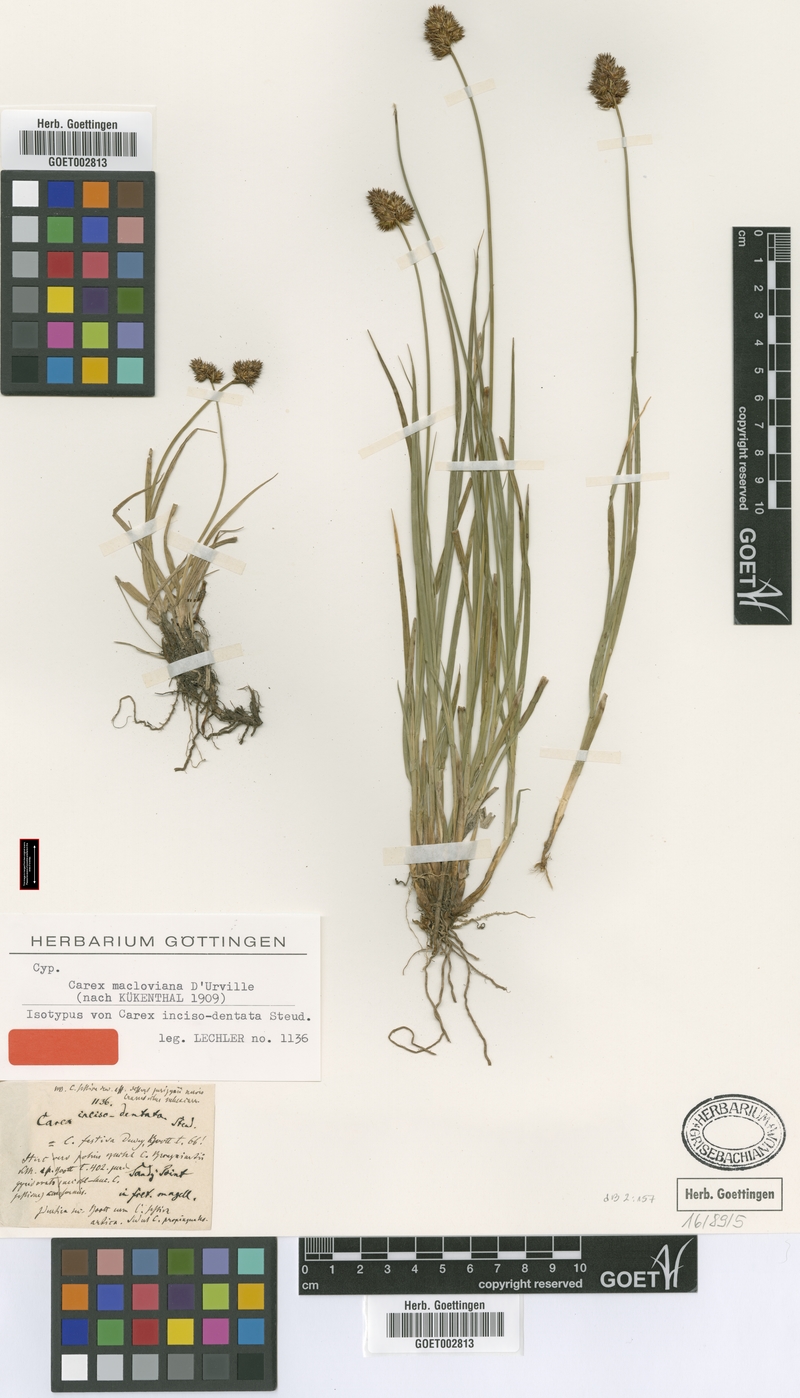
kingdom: Plantae
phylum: Tracheophyta
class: Liliopsida
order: Poales
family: Cyperaceae
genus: Carex
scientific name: Carex macloviana
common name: Falkland island sedge
